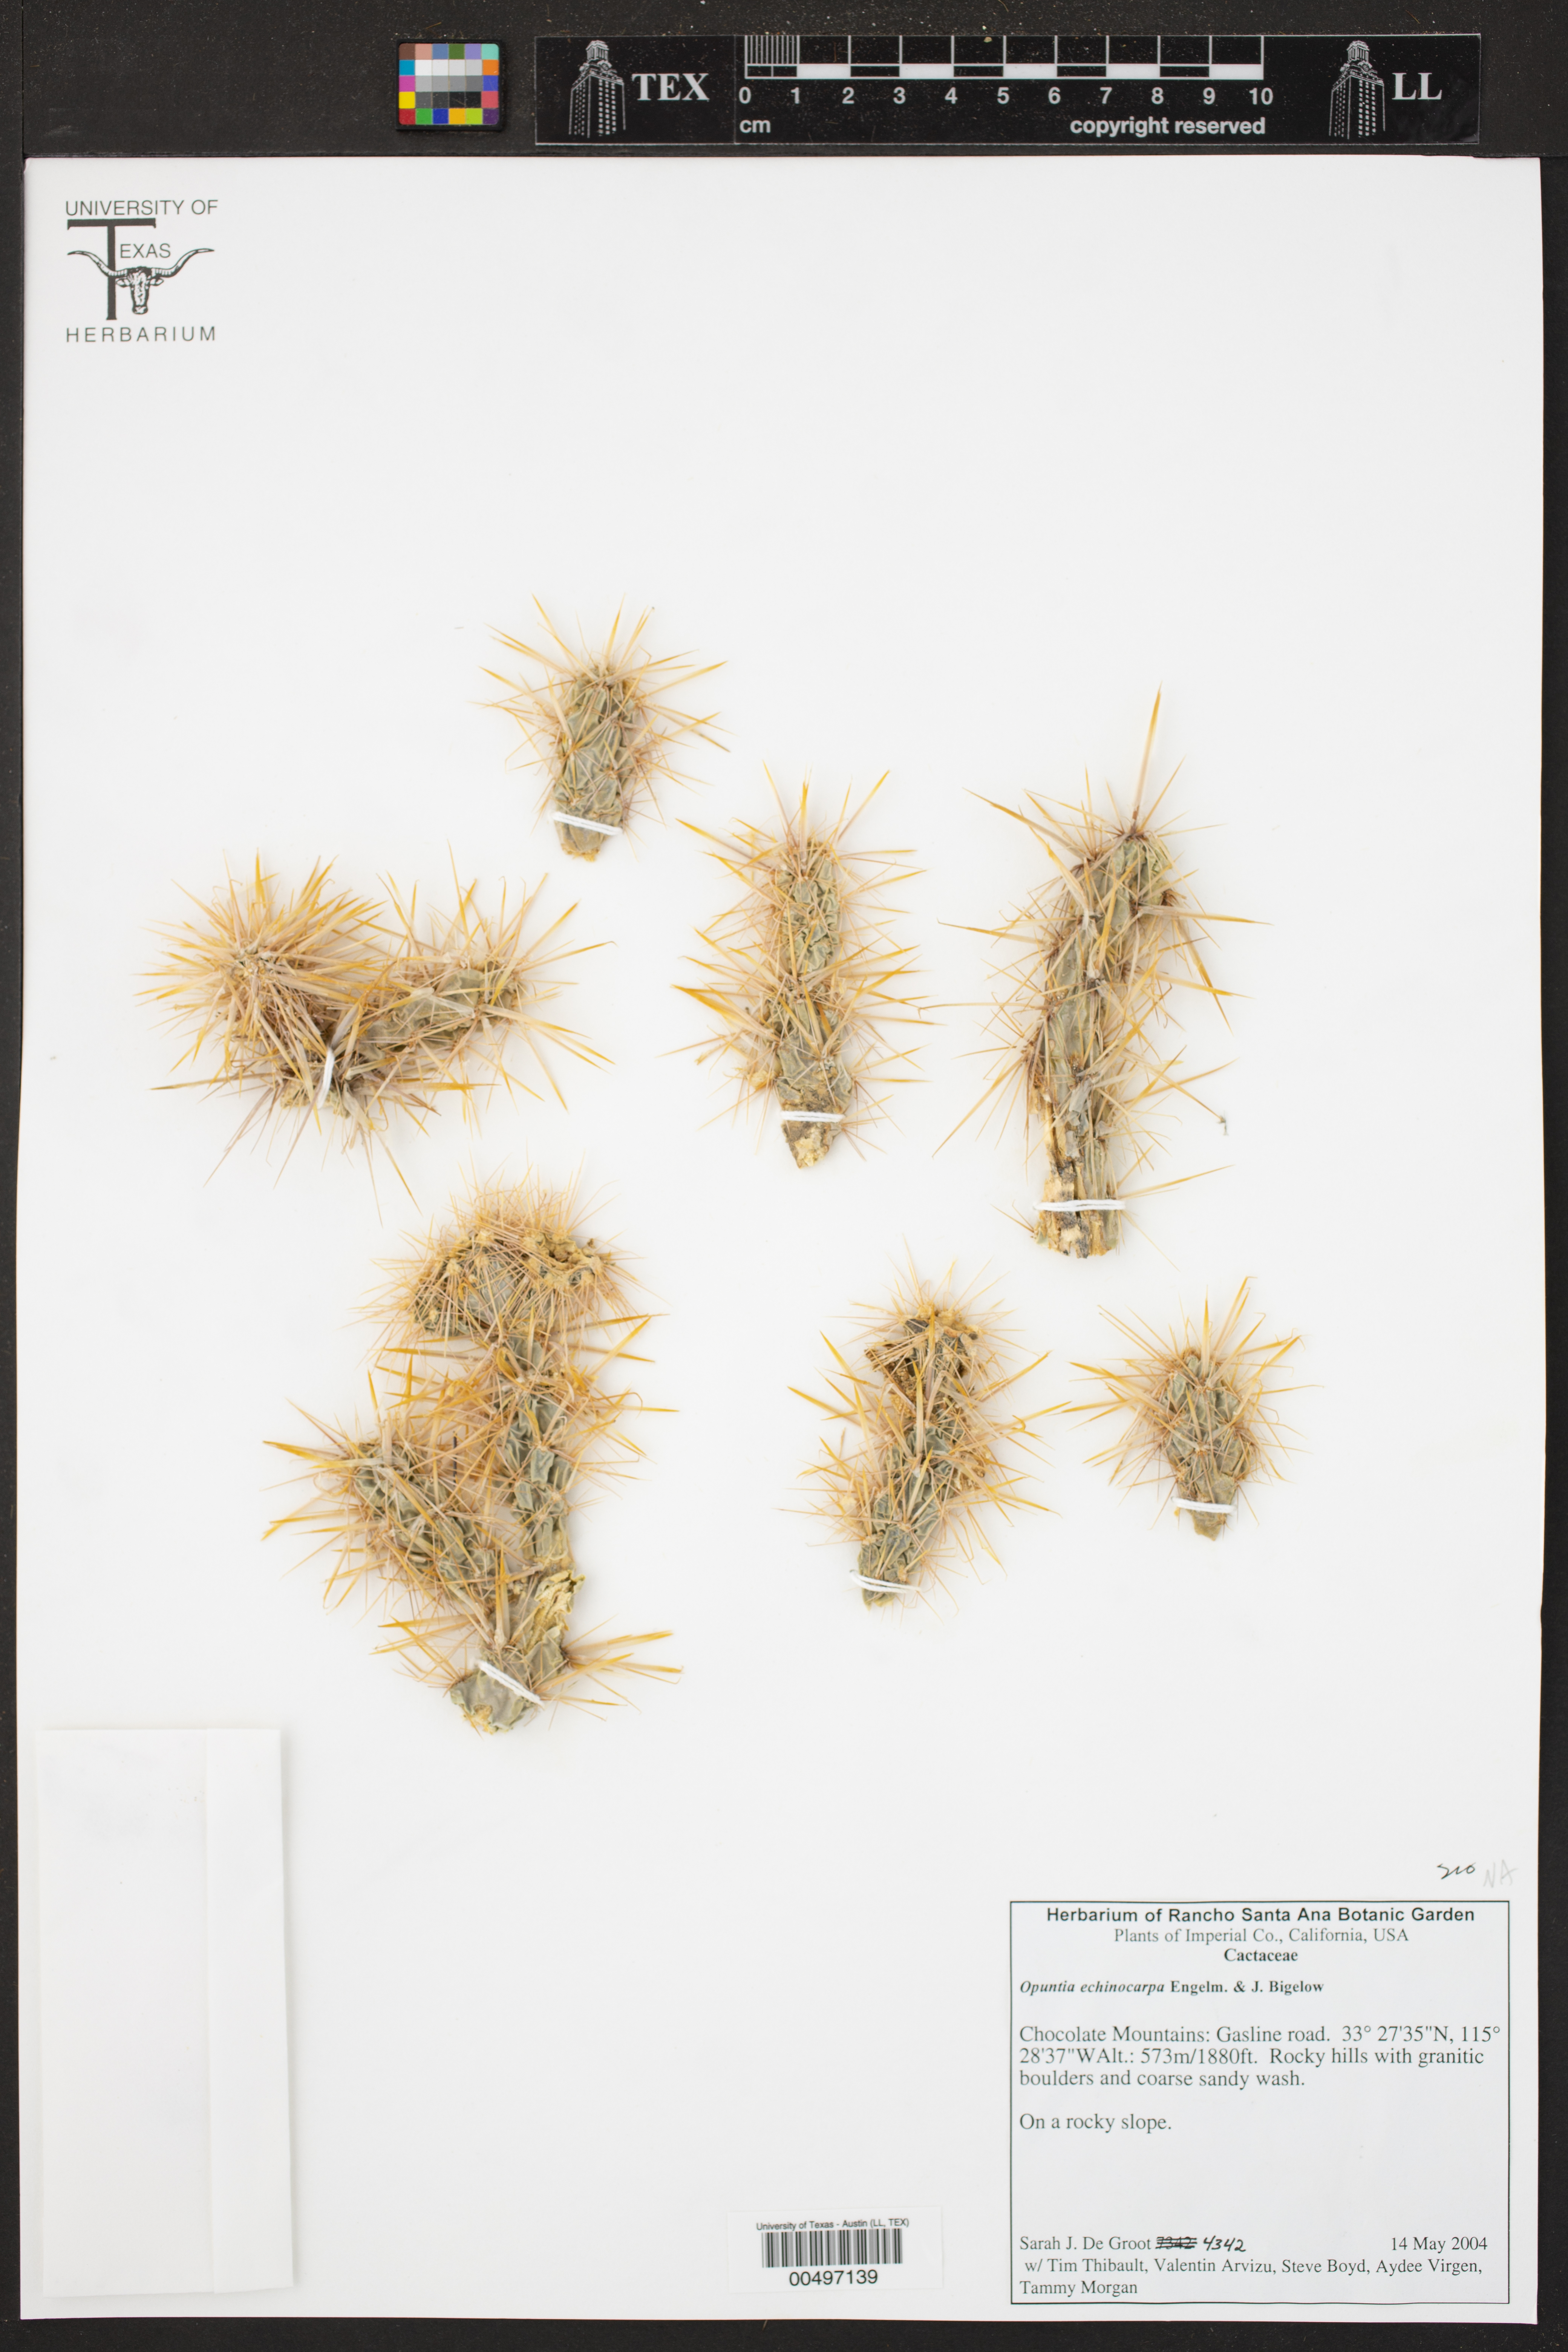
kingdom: Plantae
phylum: Tracheophyta
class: Magnoliopsida
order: Caryophyllales
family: Cactaceae
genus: Cylindropuntia
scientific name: Cylindropuntia echinocarpa
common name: Ground cholla
